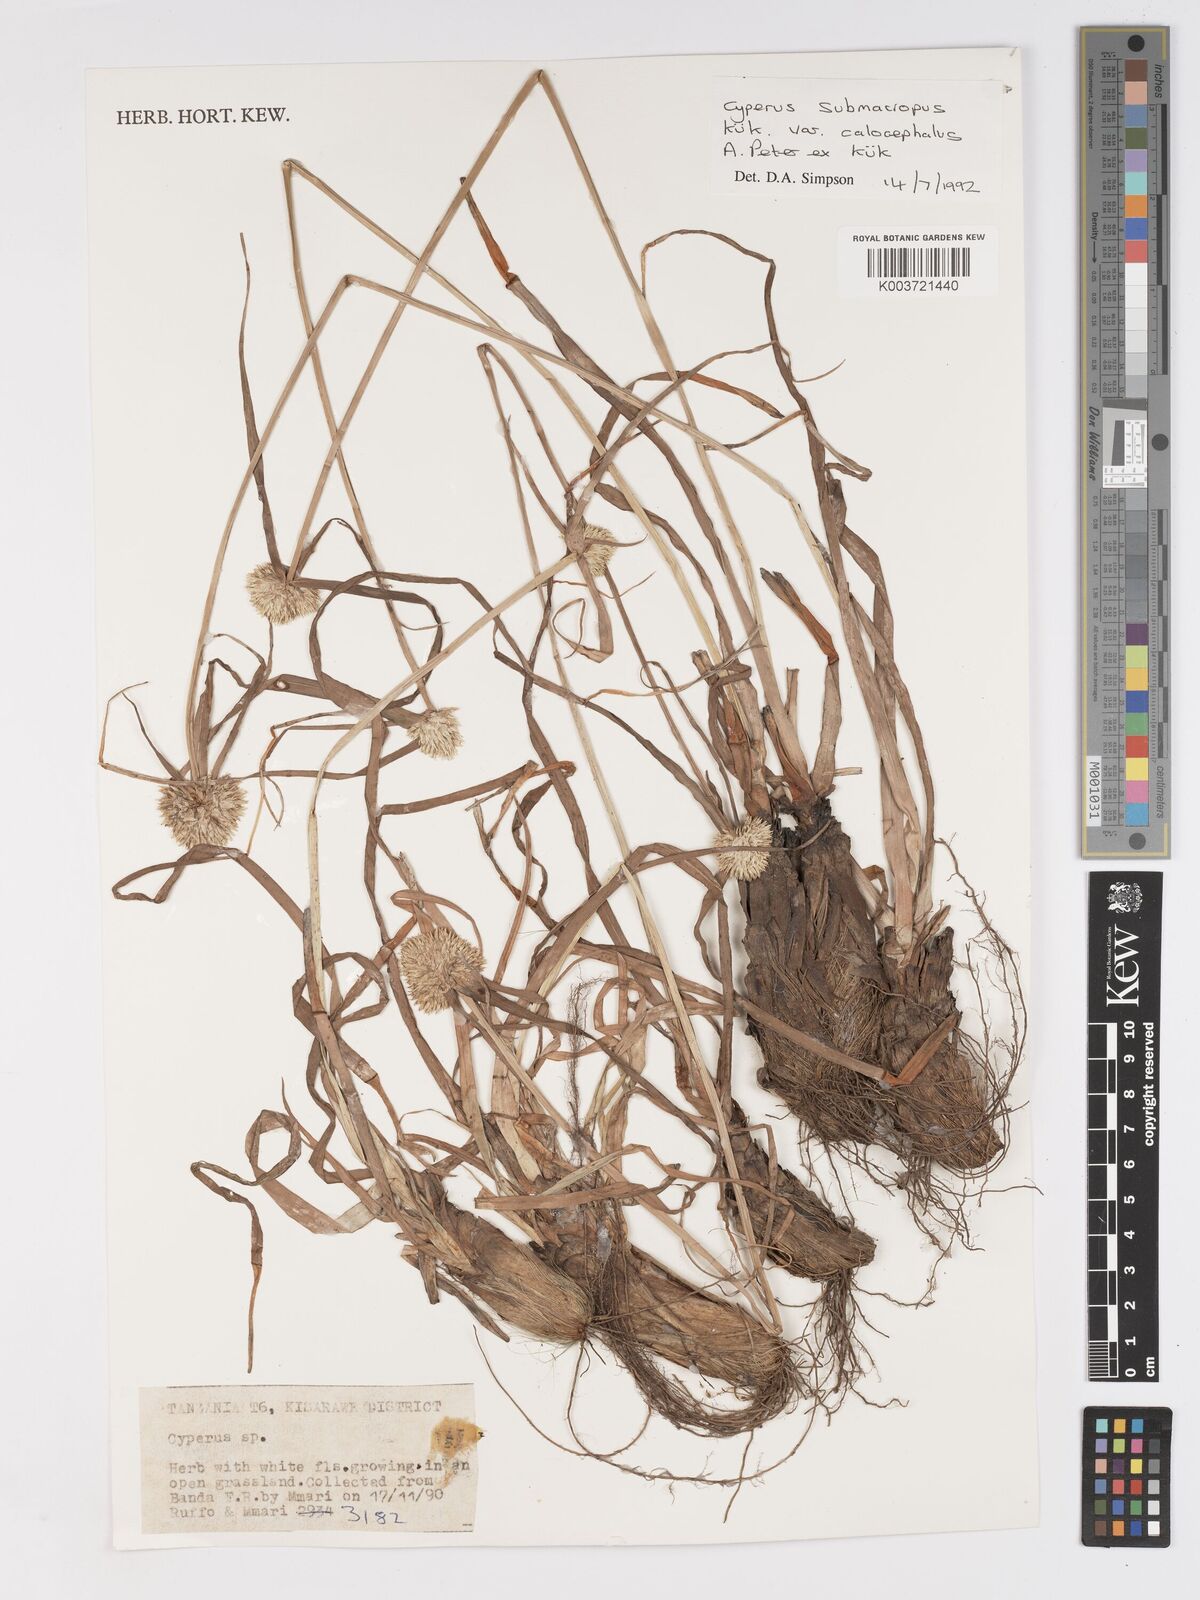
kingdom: Plantae
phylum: Tracheophyta
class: Liliopsida
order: Poales
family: Cyperaceae
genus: Cyperus
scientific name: Cyperus mollipes
